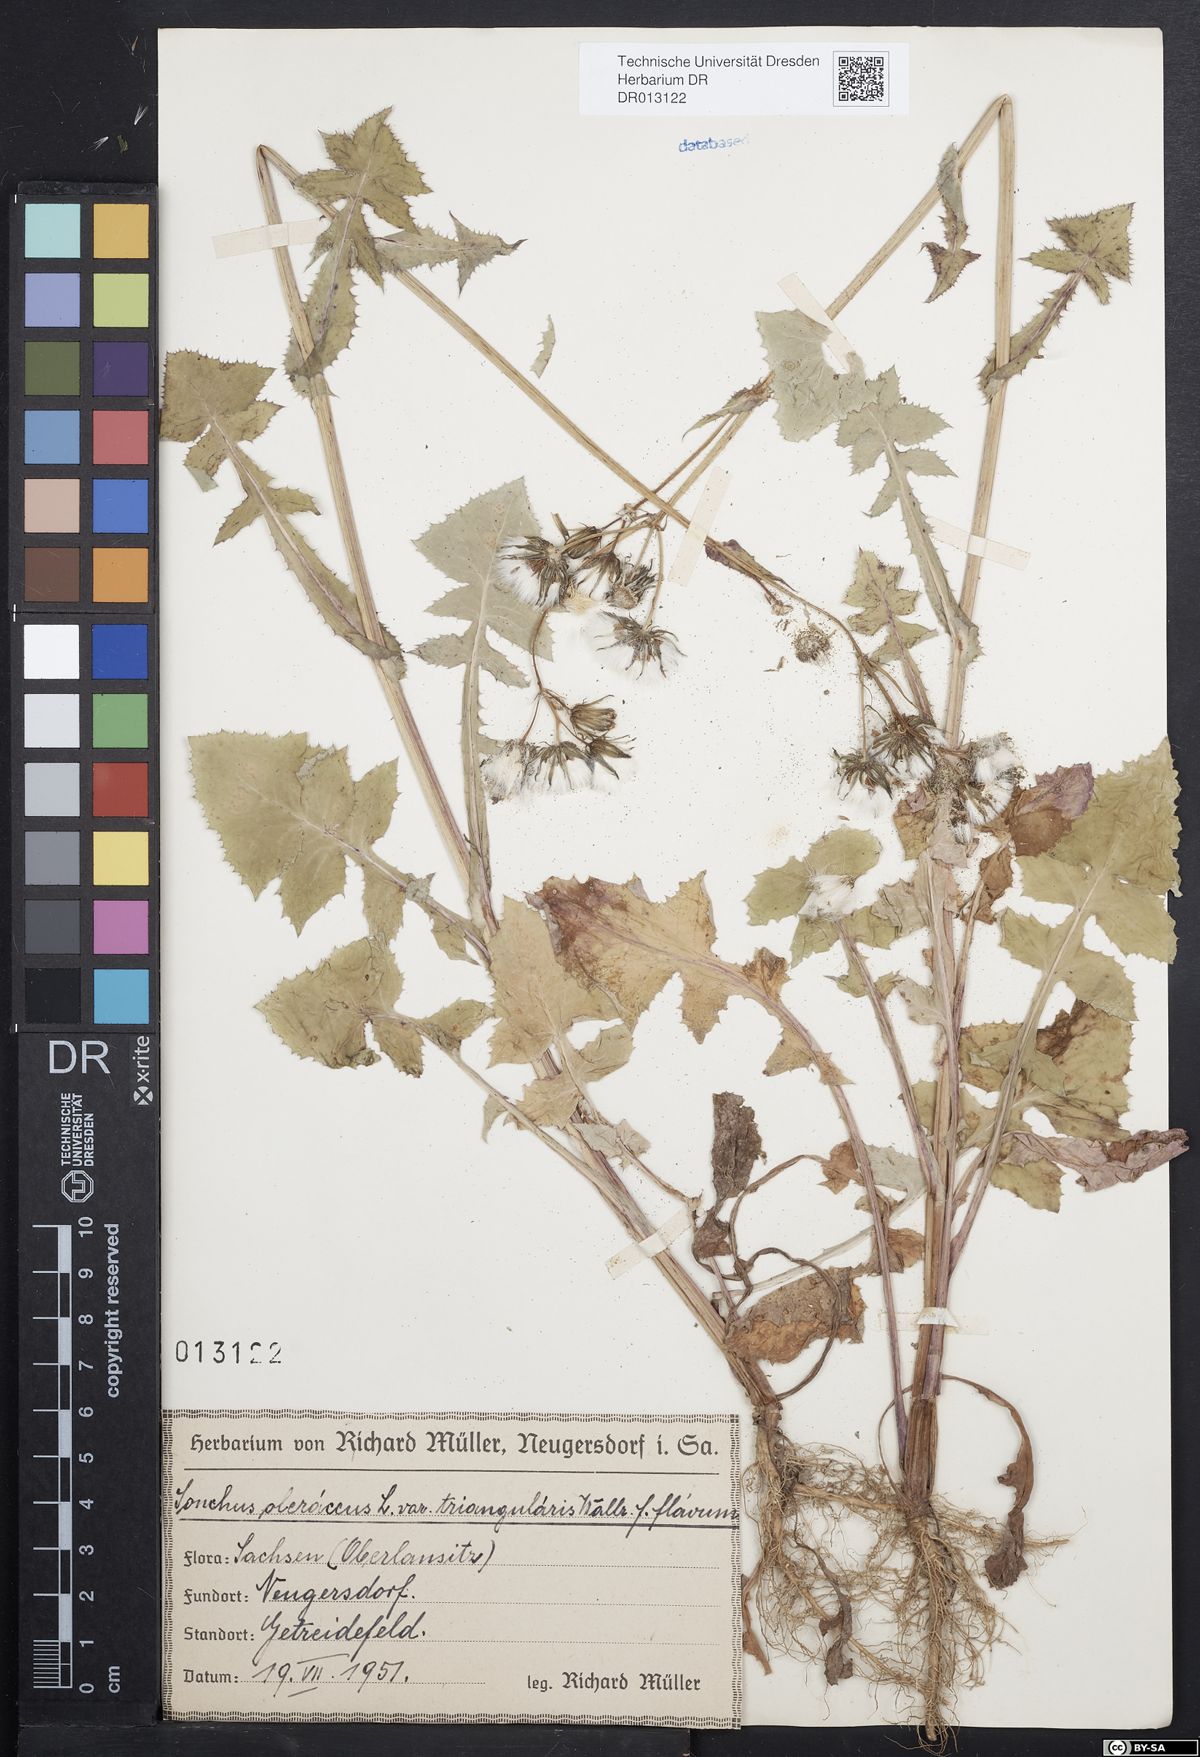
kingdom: Plantae
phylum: Tracheophyta
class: Magnoliopsida
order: Asterales
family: Asteraceae
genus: Sonchus
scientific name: Sonchus oleraceus
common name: Common sowthistle
